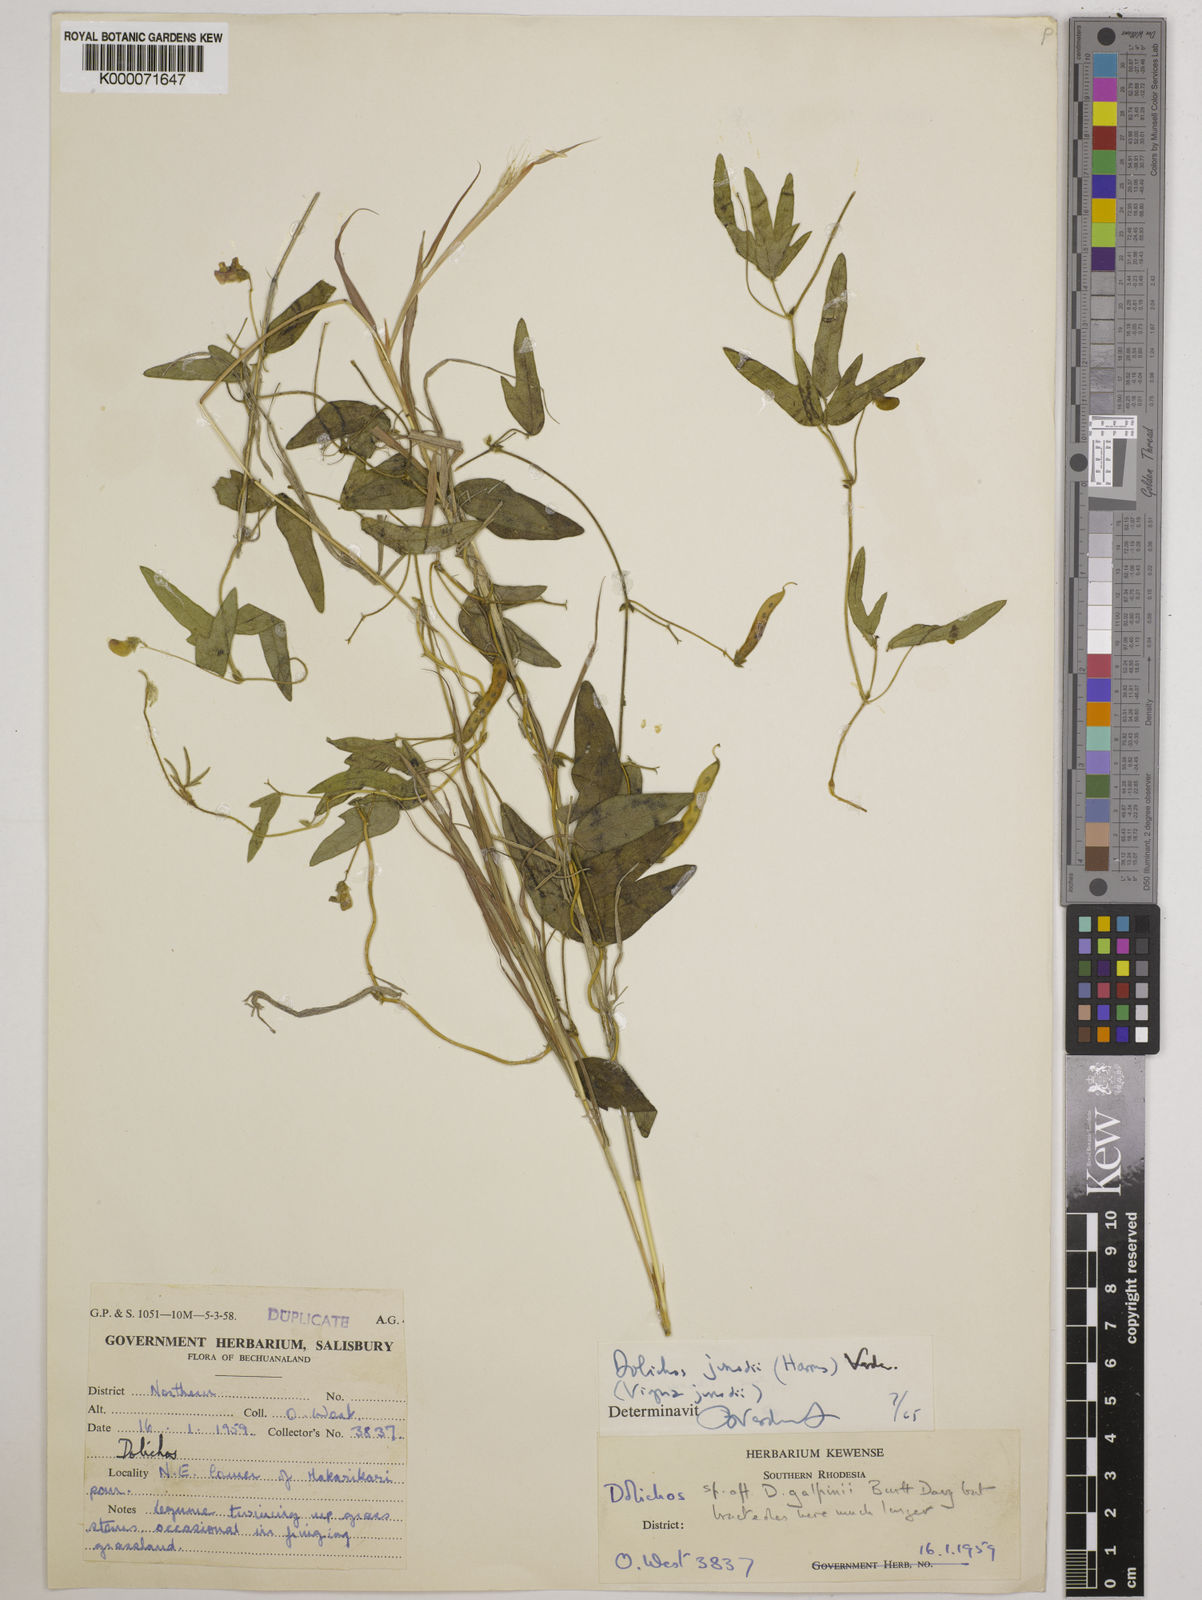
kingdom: Plantae
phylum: Tracheophyta
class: Magnoliopsida
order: Fabales
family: Fabaceae
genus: Dolichos
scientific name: Dolichos junodii
